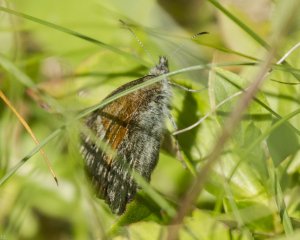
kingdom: Animalia
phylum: Arthropoda
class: Insecta
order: Lepidoptera
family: Nymphalidae
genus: Coenonympha
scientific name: Coenonympha tullia
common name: Large Heath
